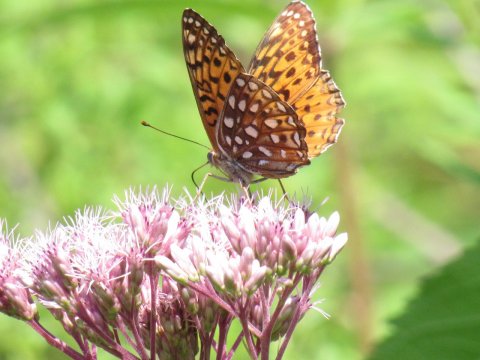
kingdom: Animalia
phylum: Arthropoda
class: Insecta
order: Lepidoptera
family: Nymphalidae
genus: Speyeria
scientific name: Speyeria atlantis
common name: Atlantis Fritillary
